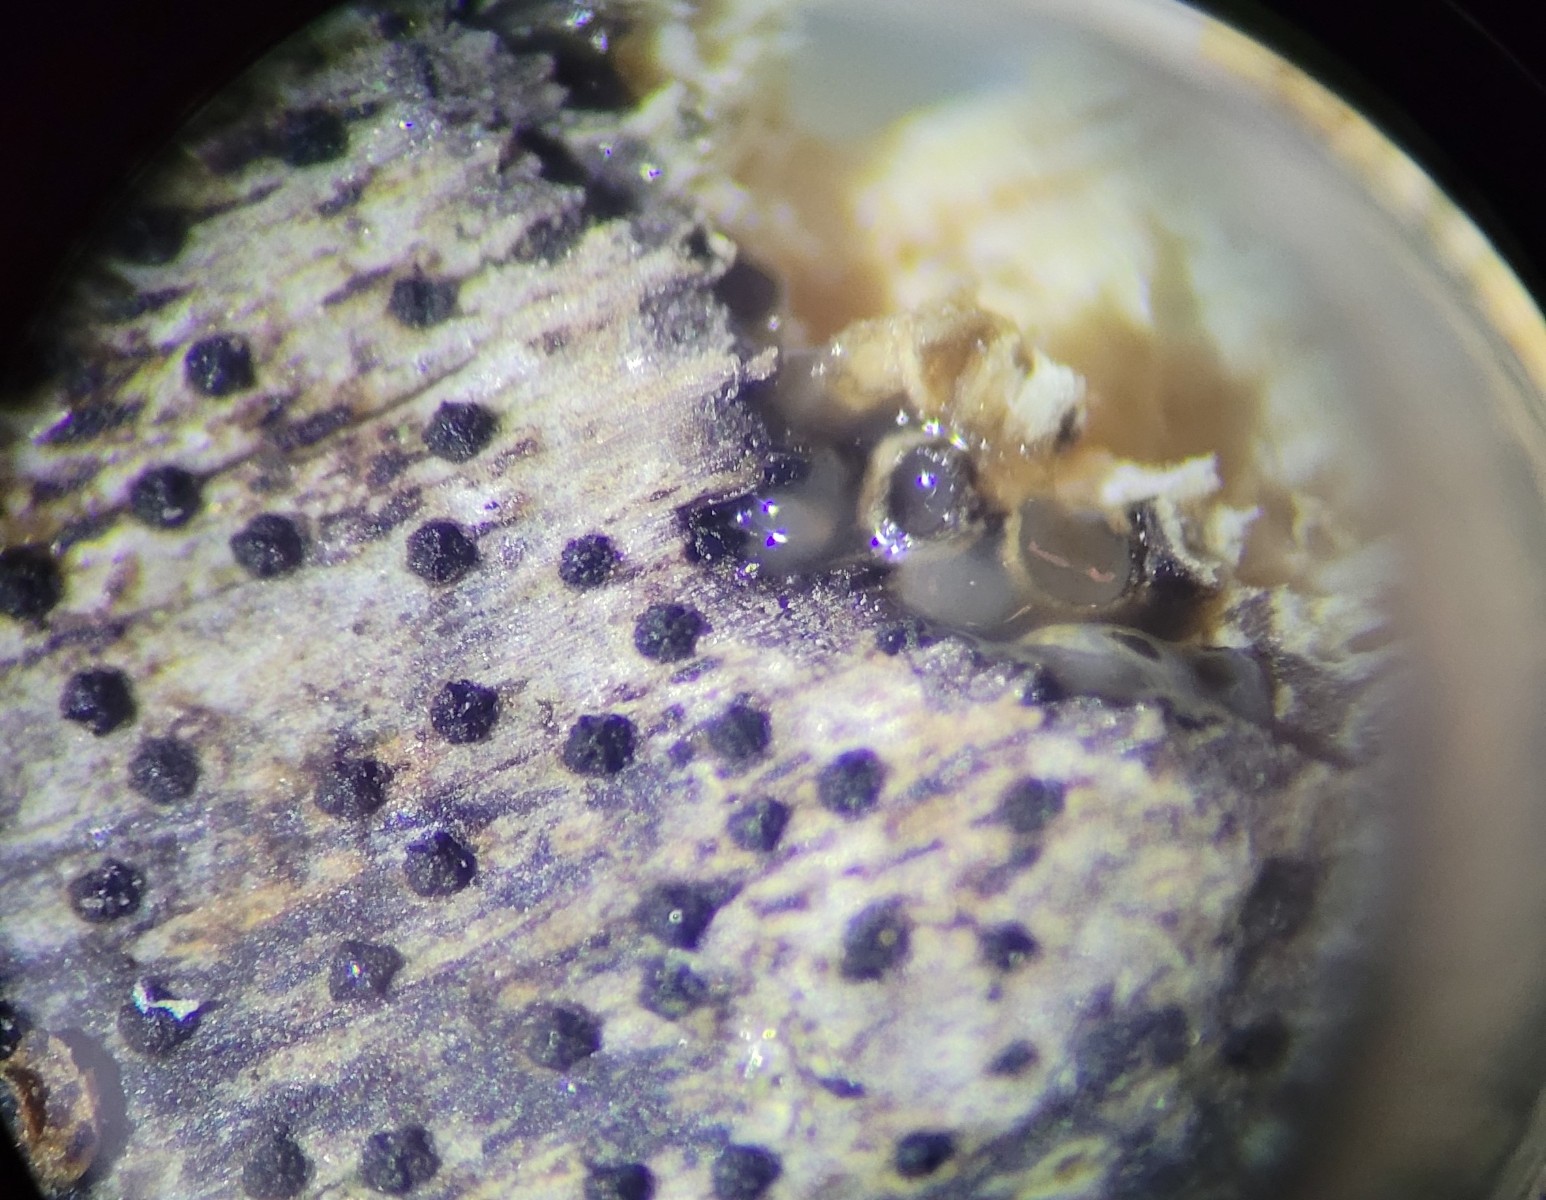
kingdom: Fungi
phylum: Ascomycota
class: Sordariomycetes
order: Xylariales
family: Diatrypaceae
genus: Eutypa
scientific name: Eutypa maura
